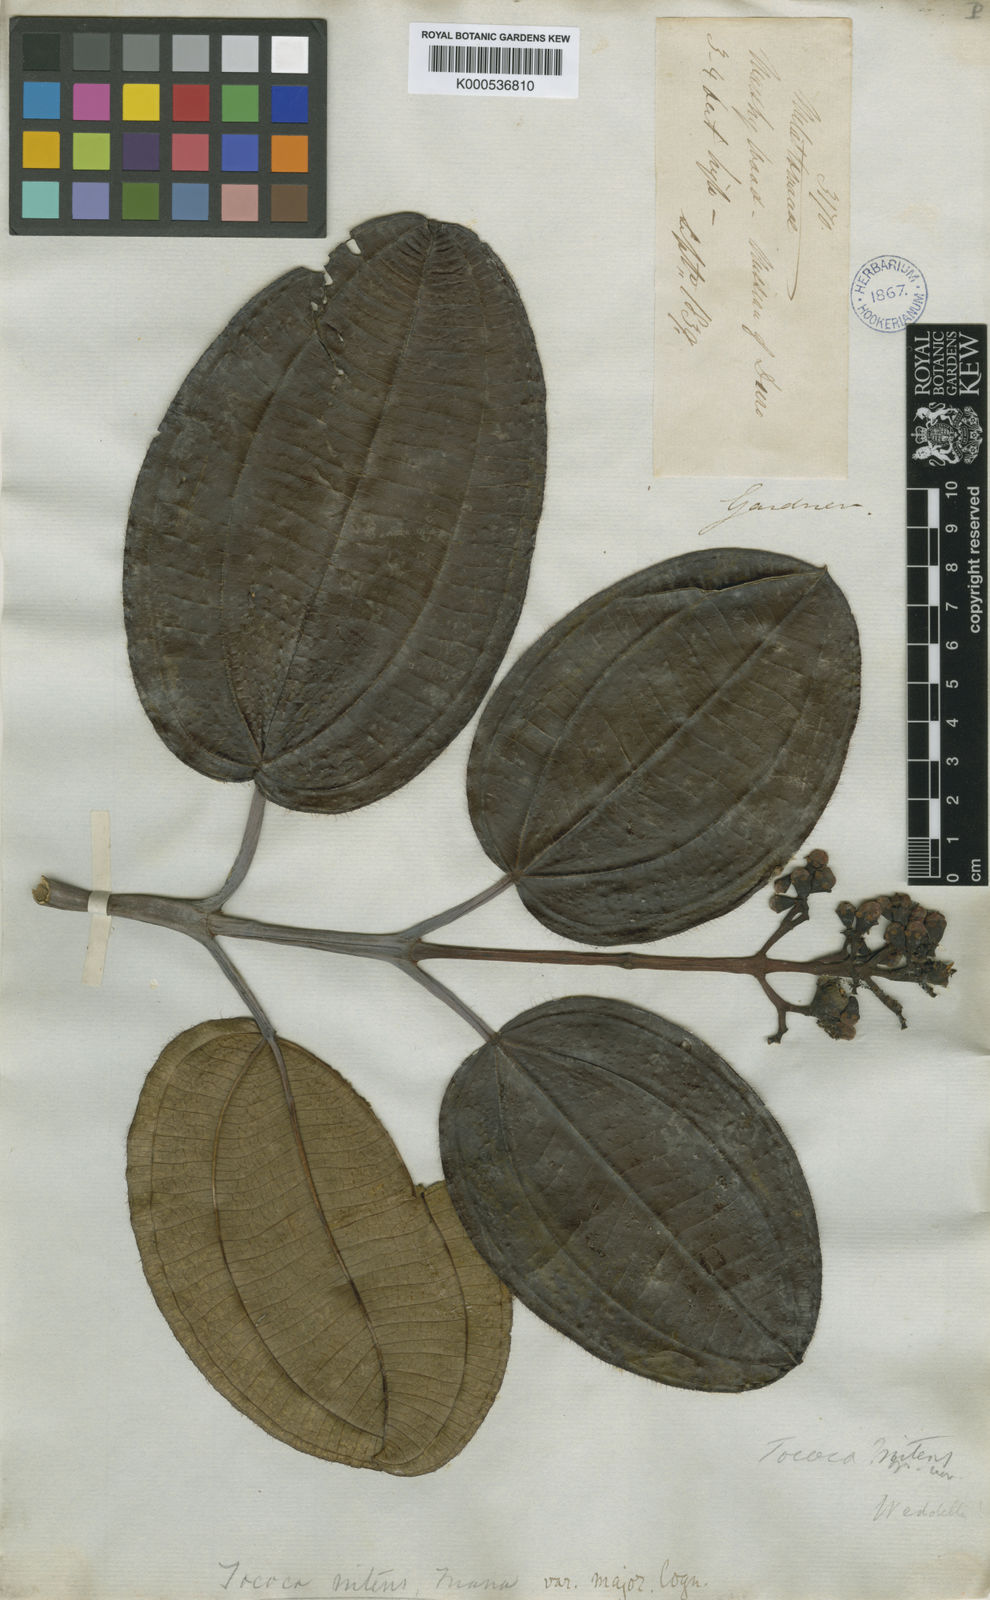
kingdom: Plantae
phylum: Tracheophyta
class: Magnoliopsida
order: Myrtales
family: Melastomataceae
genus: Miconia
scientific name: Miconia nitens
